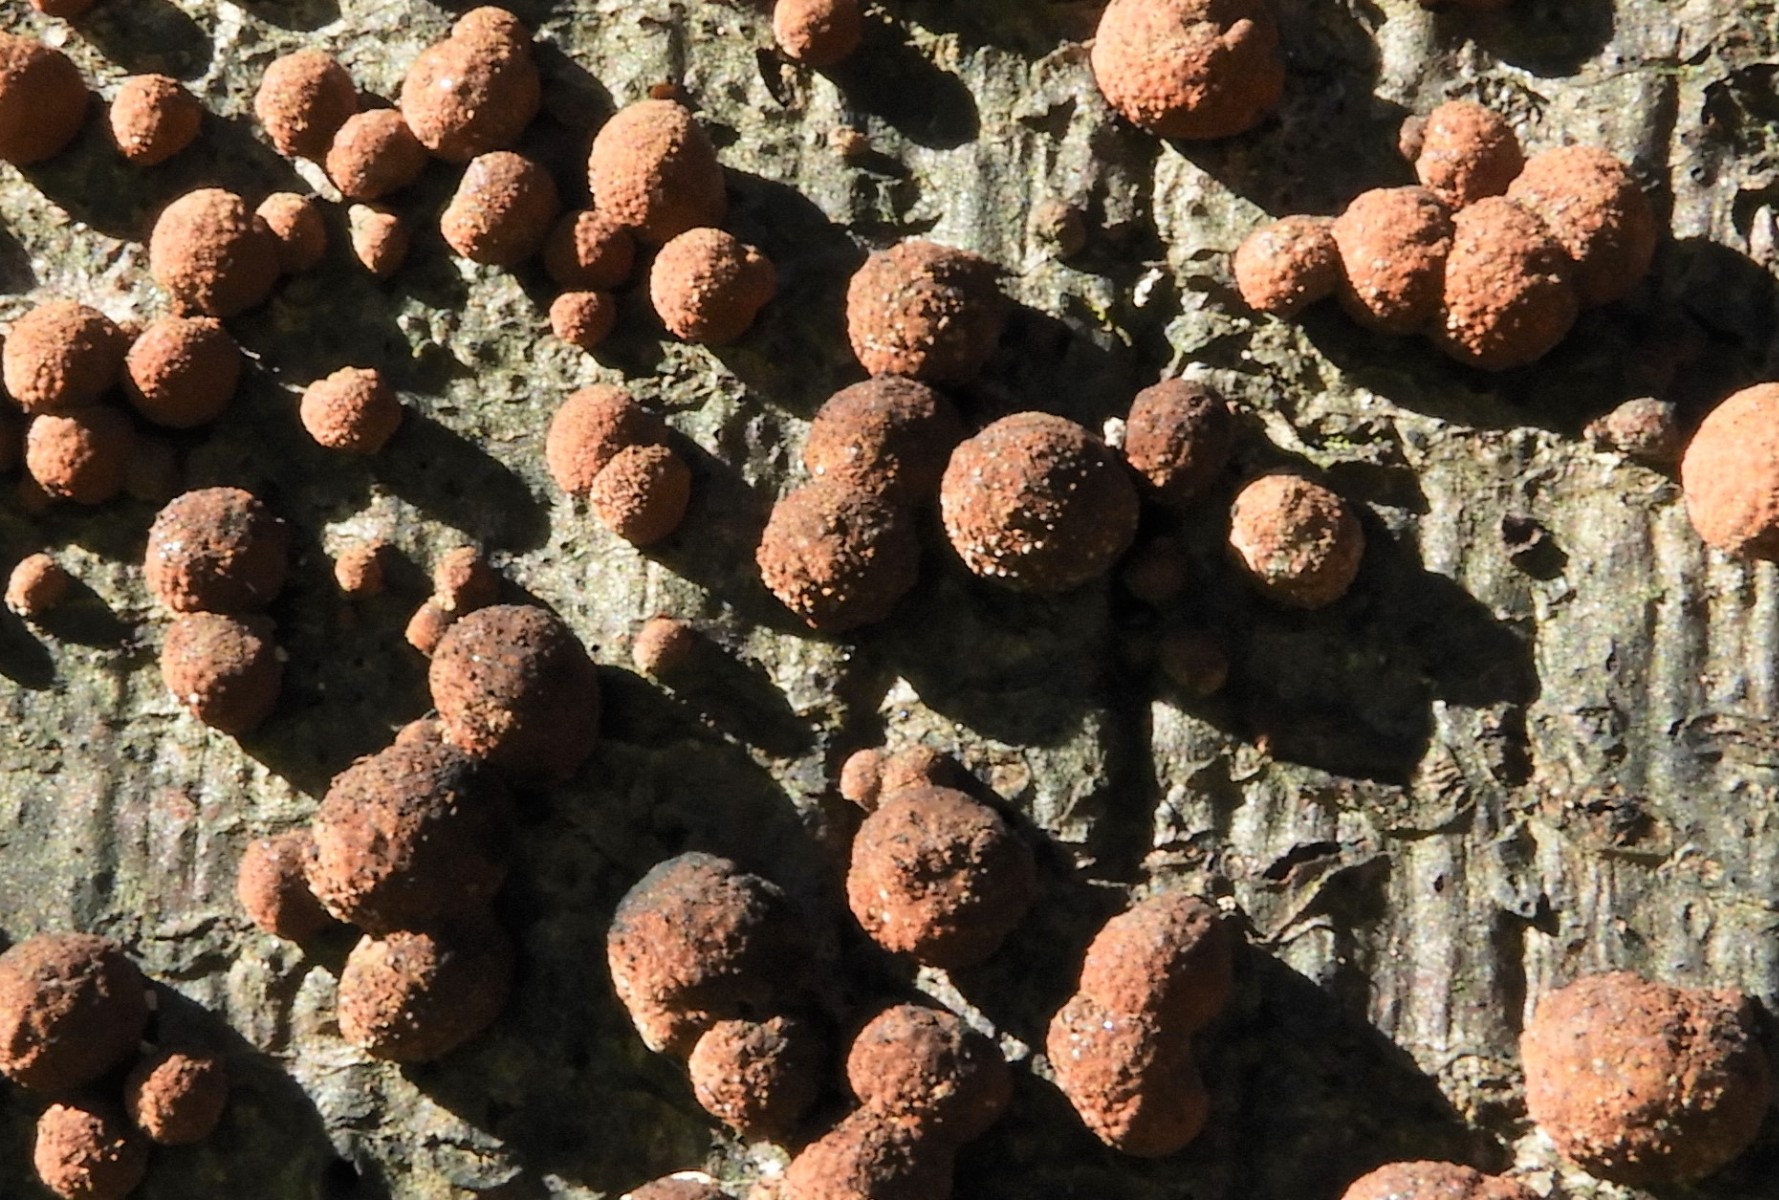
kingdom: Fungi
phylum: Ascomycota
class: Sordariomycetes
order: Xylariales
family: Hypoxylaceae
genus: Hypoxylon
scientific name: Hypoxylon fragiforme
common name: kuljordbær
